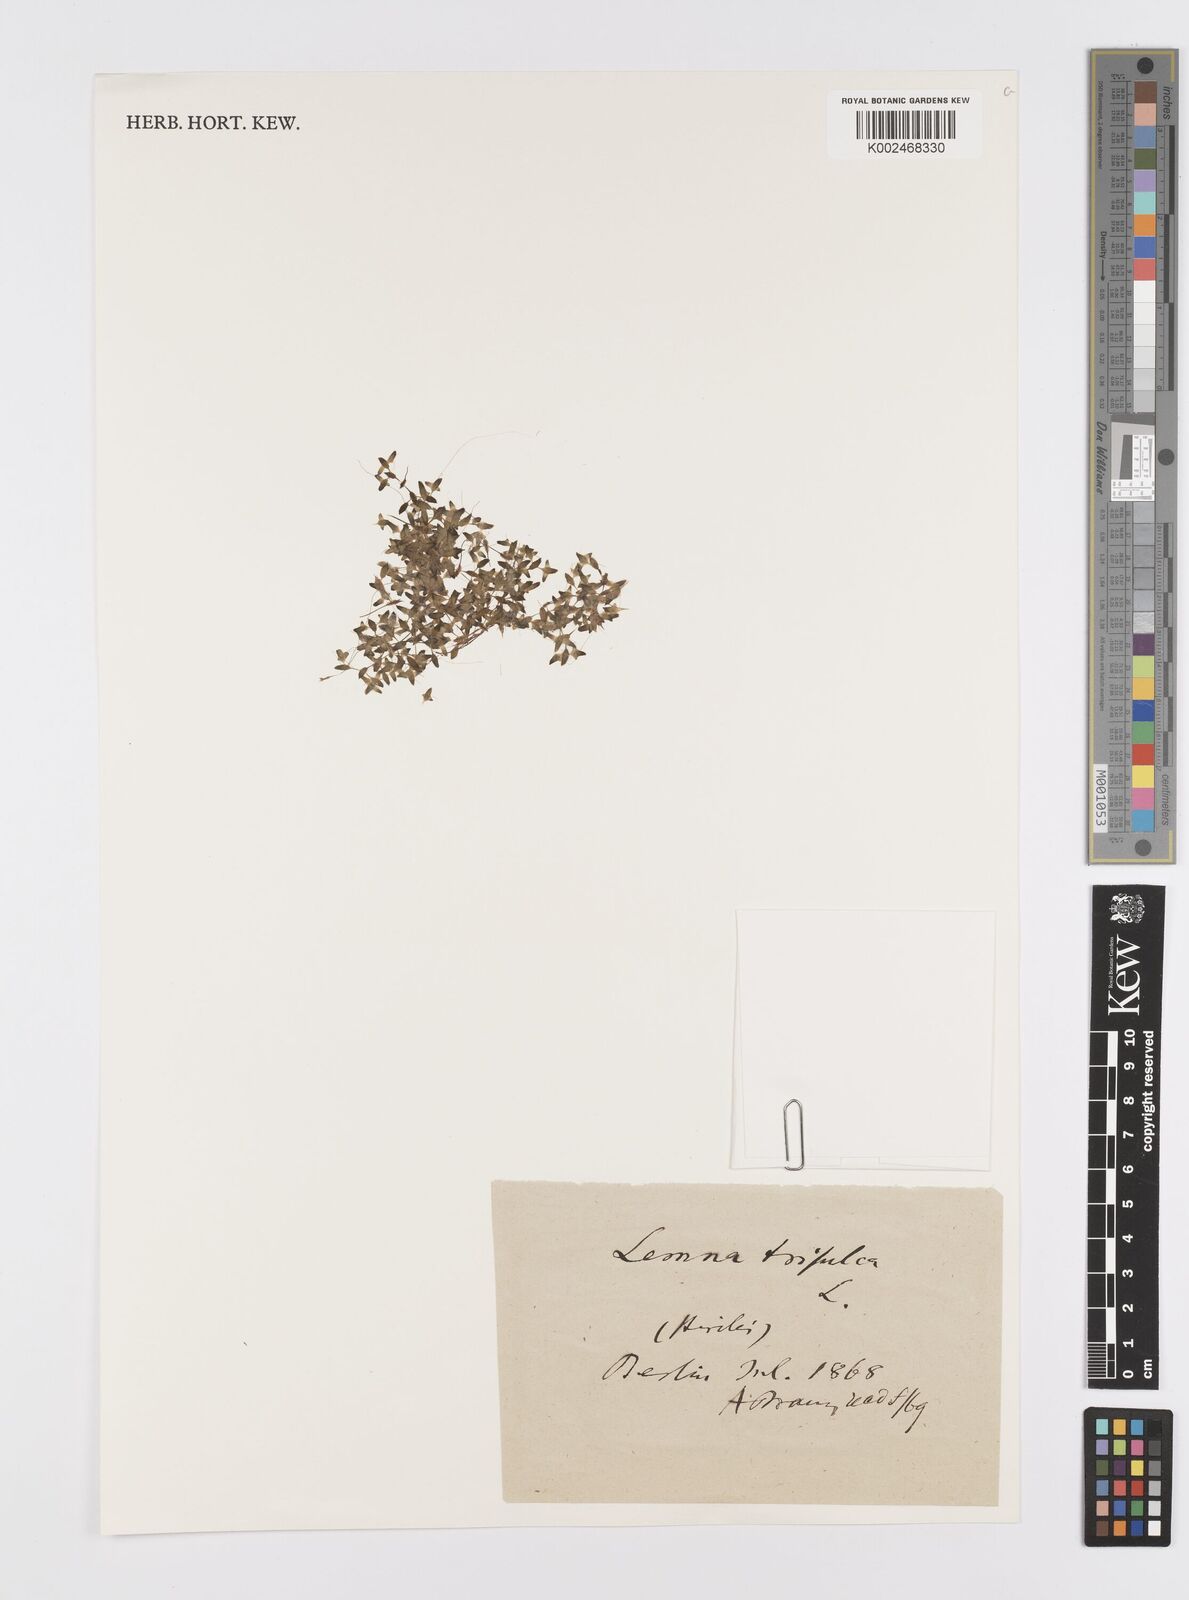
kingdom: Plantae
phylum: Tracheophyta
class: Liliopsida
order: Alismatales
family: Araceae
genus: Lemna
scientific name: Lemna trisulca
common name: Ivy-leaved duckweed
